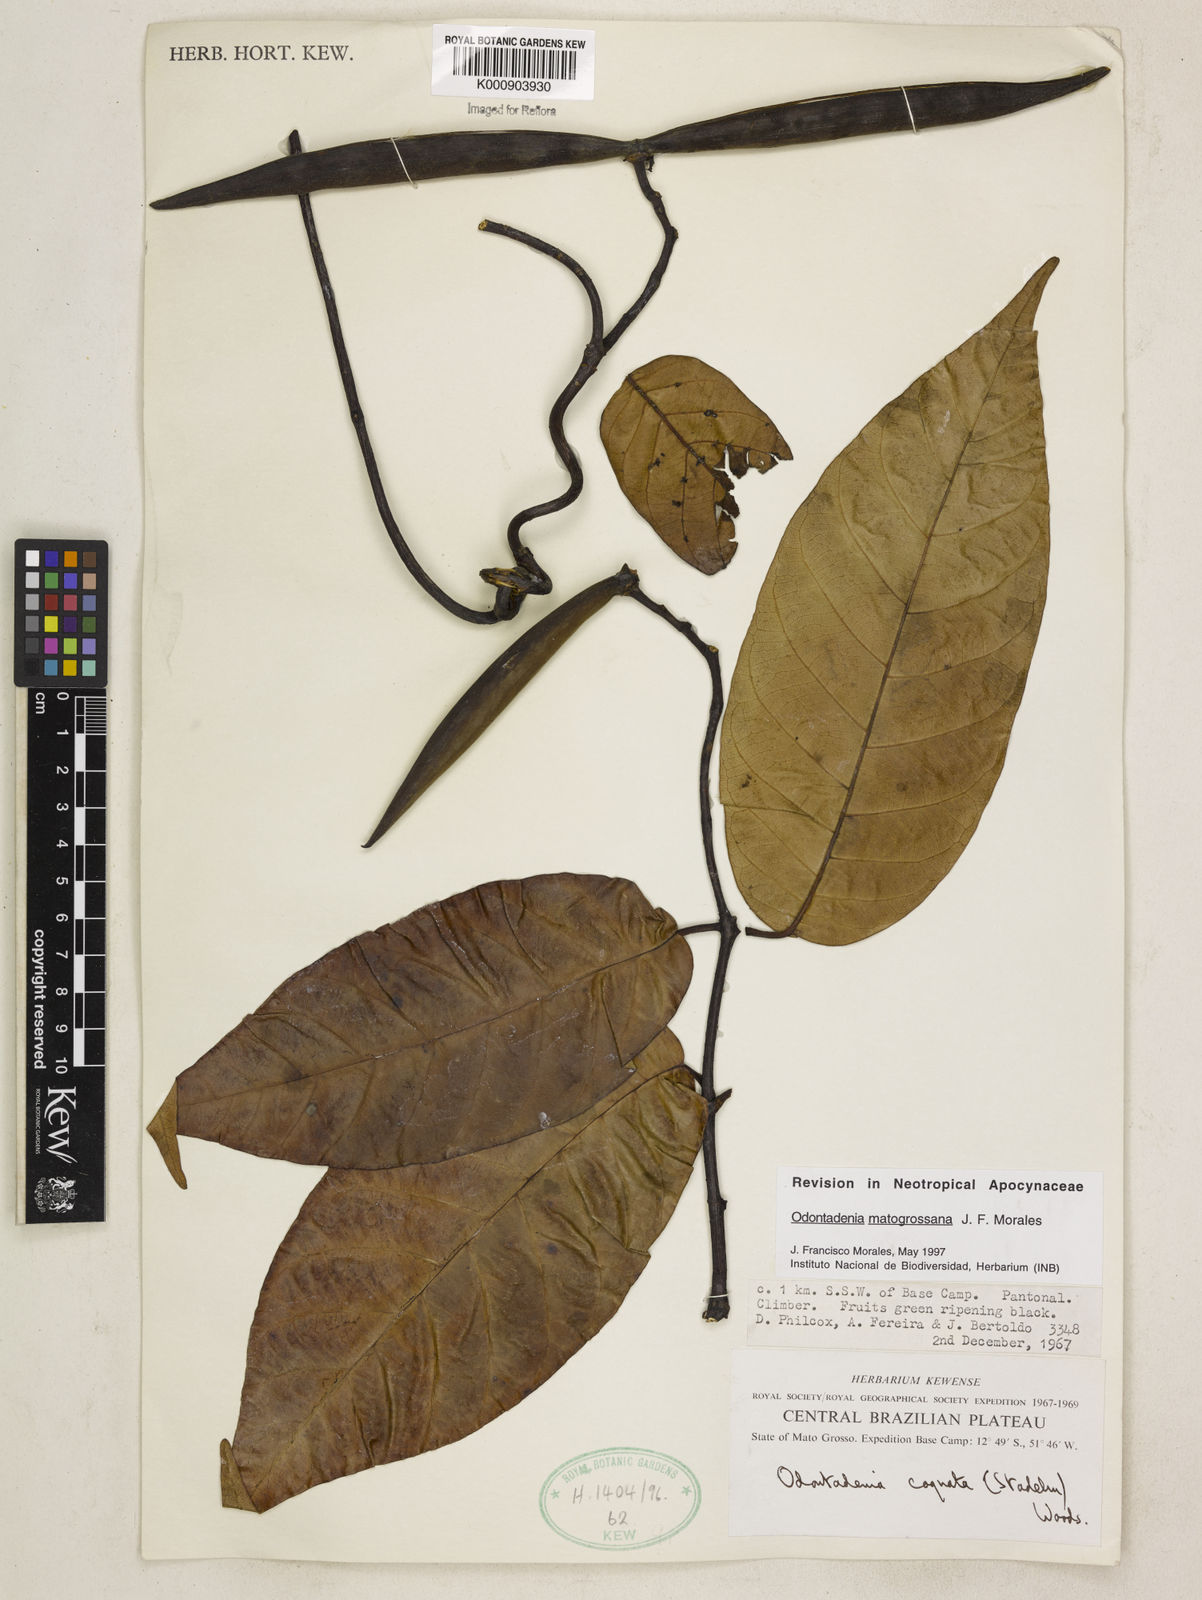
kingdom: Plantae
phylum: Tracheophyta
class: Magnoliopsida
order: Gentianales
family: Apocynaceae
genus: Odontadenia
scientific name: Odontadenia matogrossana
